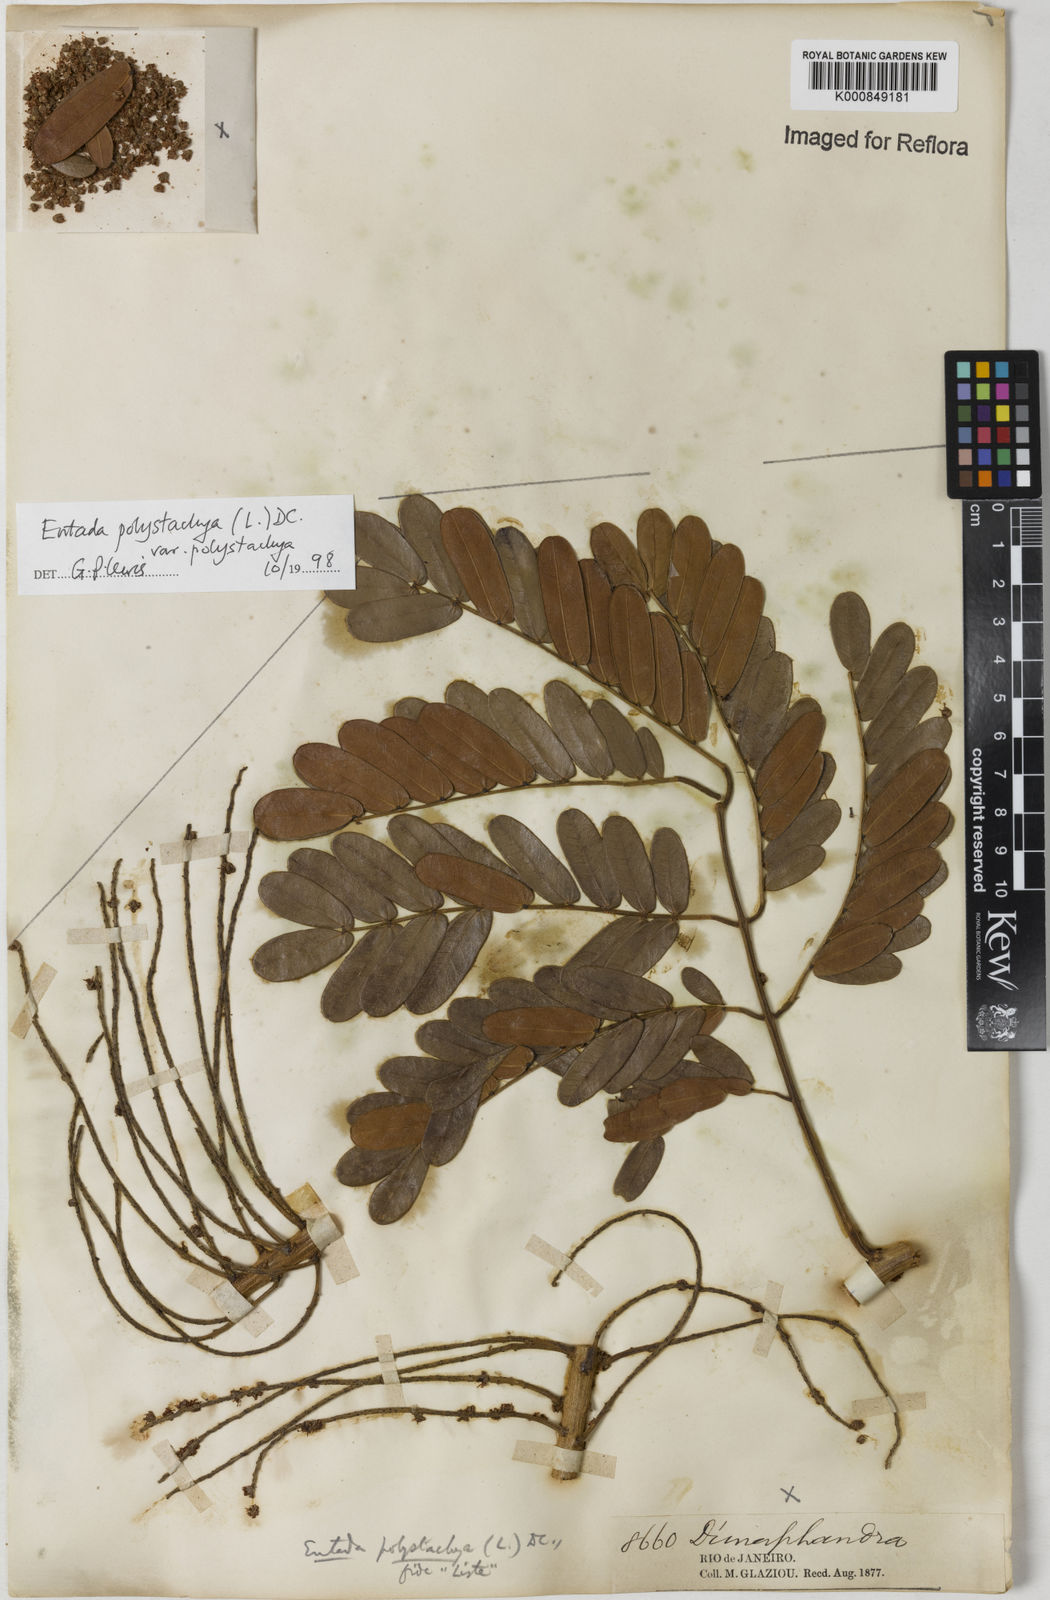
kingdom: Plantae
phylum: Tracheophyta
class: Magnoliopsida
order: Fabales
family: Fabaceae
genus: Entada
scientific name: Entada polystachya
